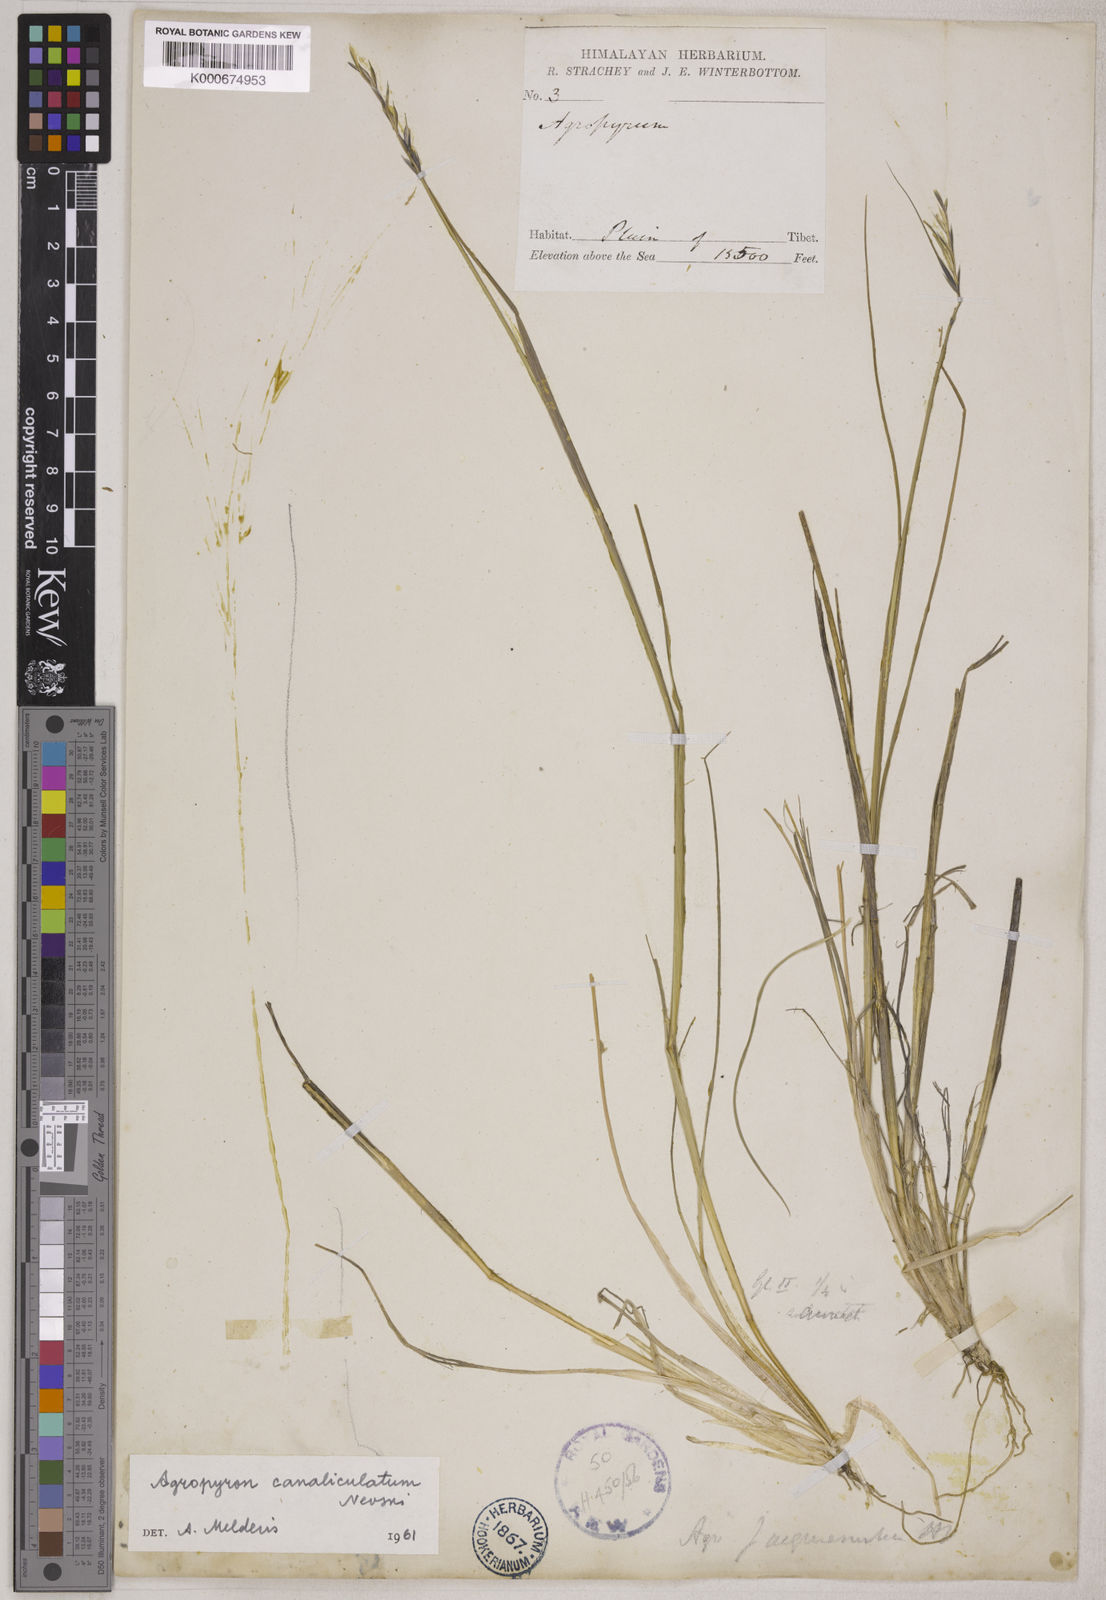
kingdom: Plantae
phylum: Tracheophyta
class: Liliopsida
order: Poales
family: Poaceae
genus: Elymus
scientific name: Elymus jacquemontii
